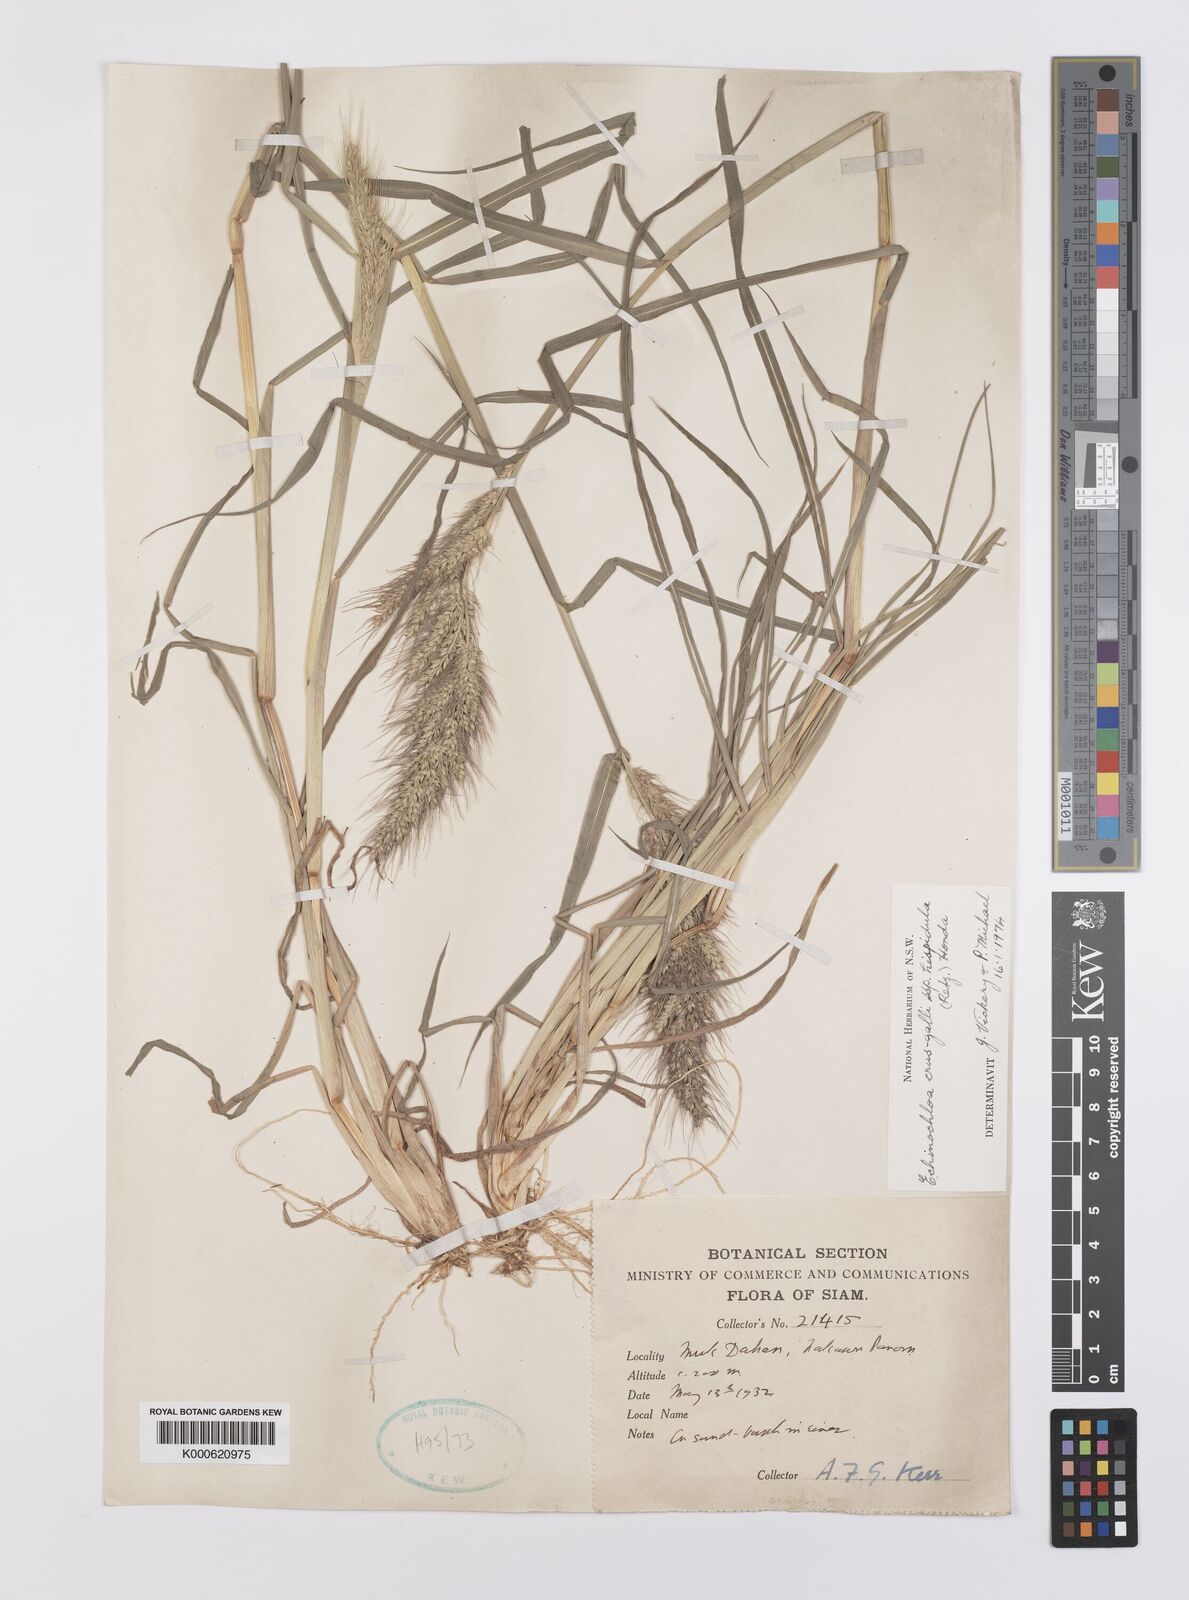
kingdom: Plantae
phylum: Tracheophyta
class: Liliopsida
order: Poales
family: Poaceae
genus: Echinochloa
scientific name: Echinochloa crus-galli
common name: Cockspur
